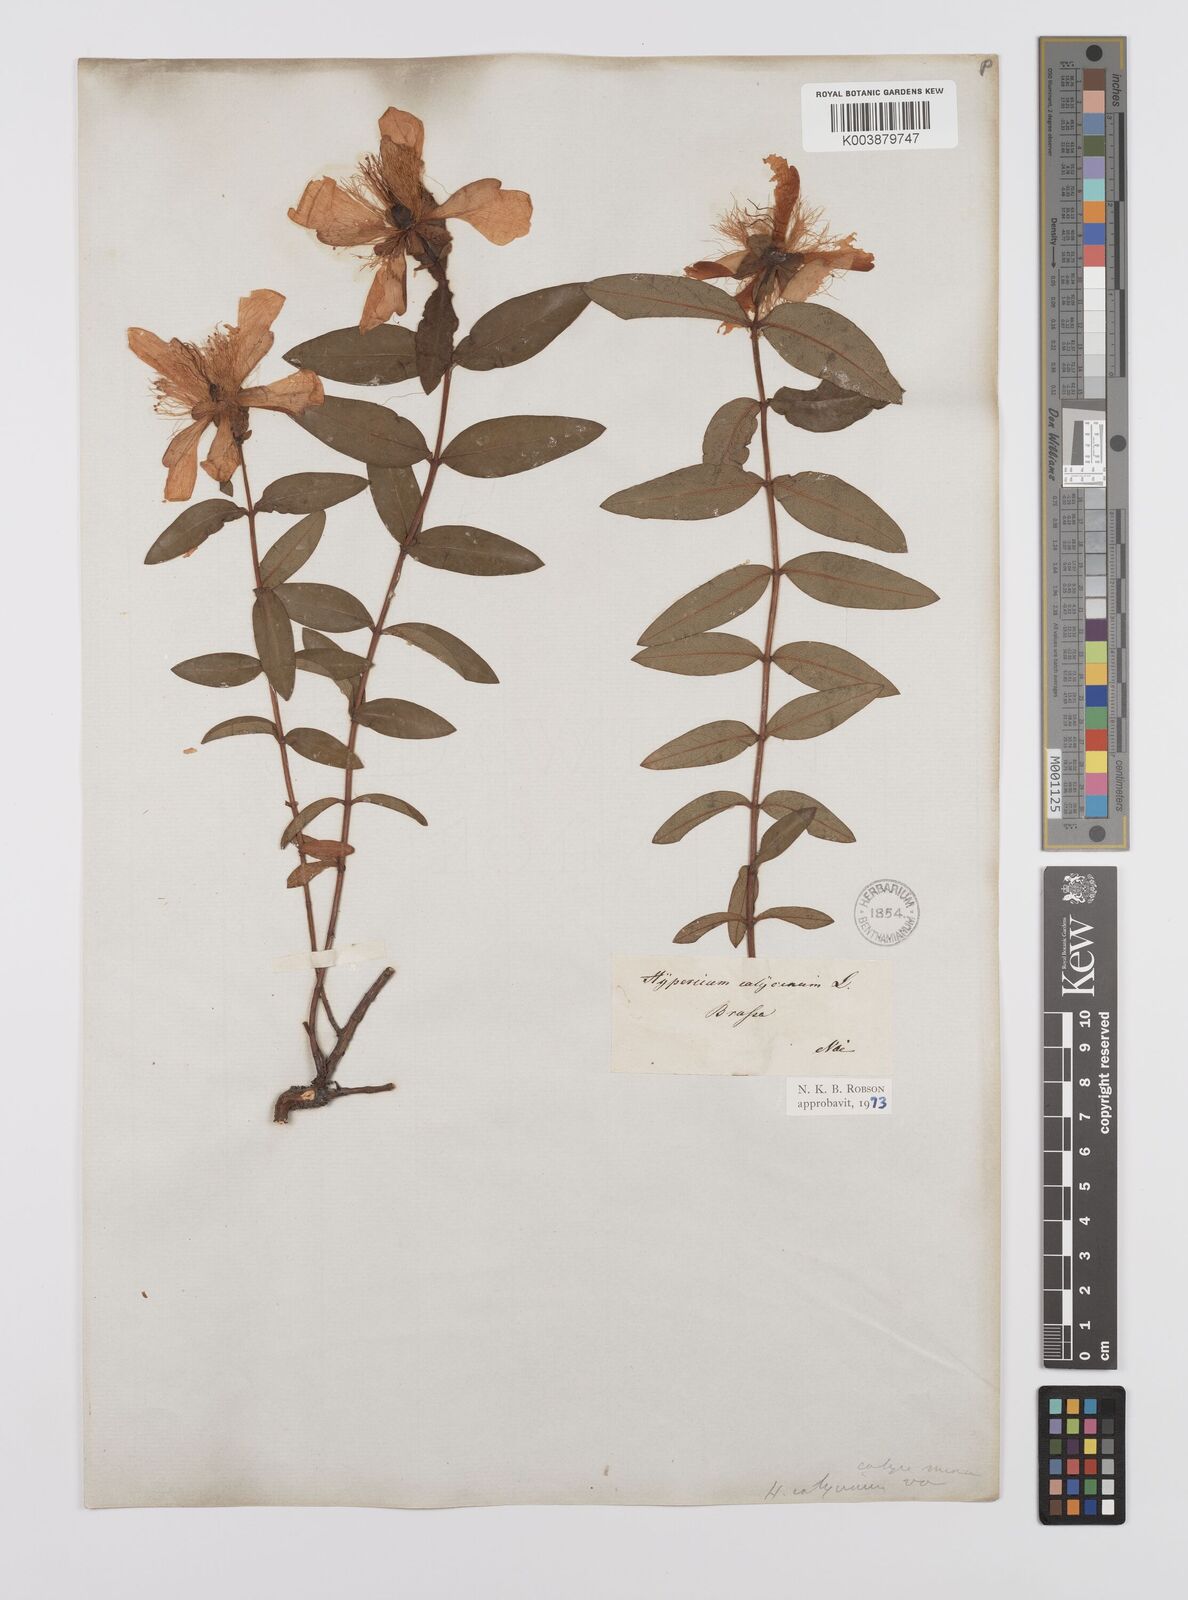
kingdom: Plantae
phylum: Tracheophyta
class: Magnoliopsida
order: Malpighiales
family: Hypericaceae
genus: Hypericum
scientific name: Hypericum calycinum
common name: Rose-of-sharon
